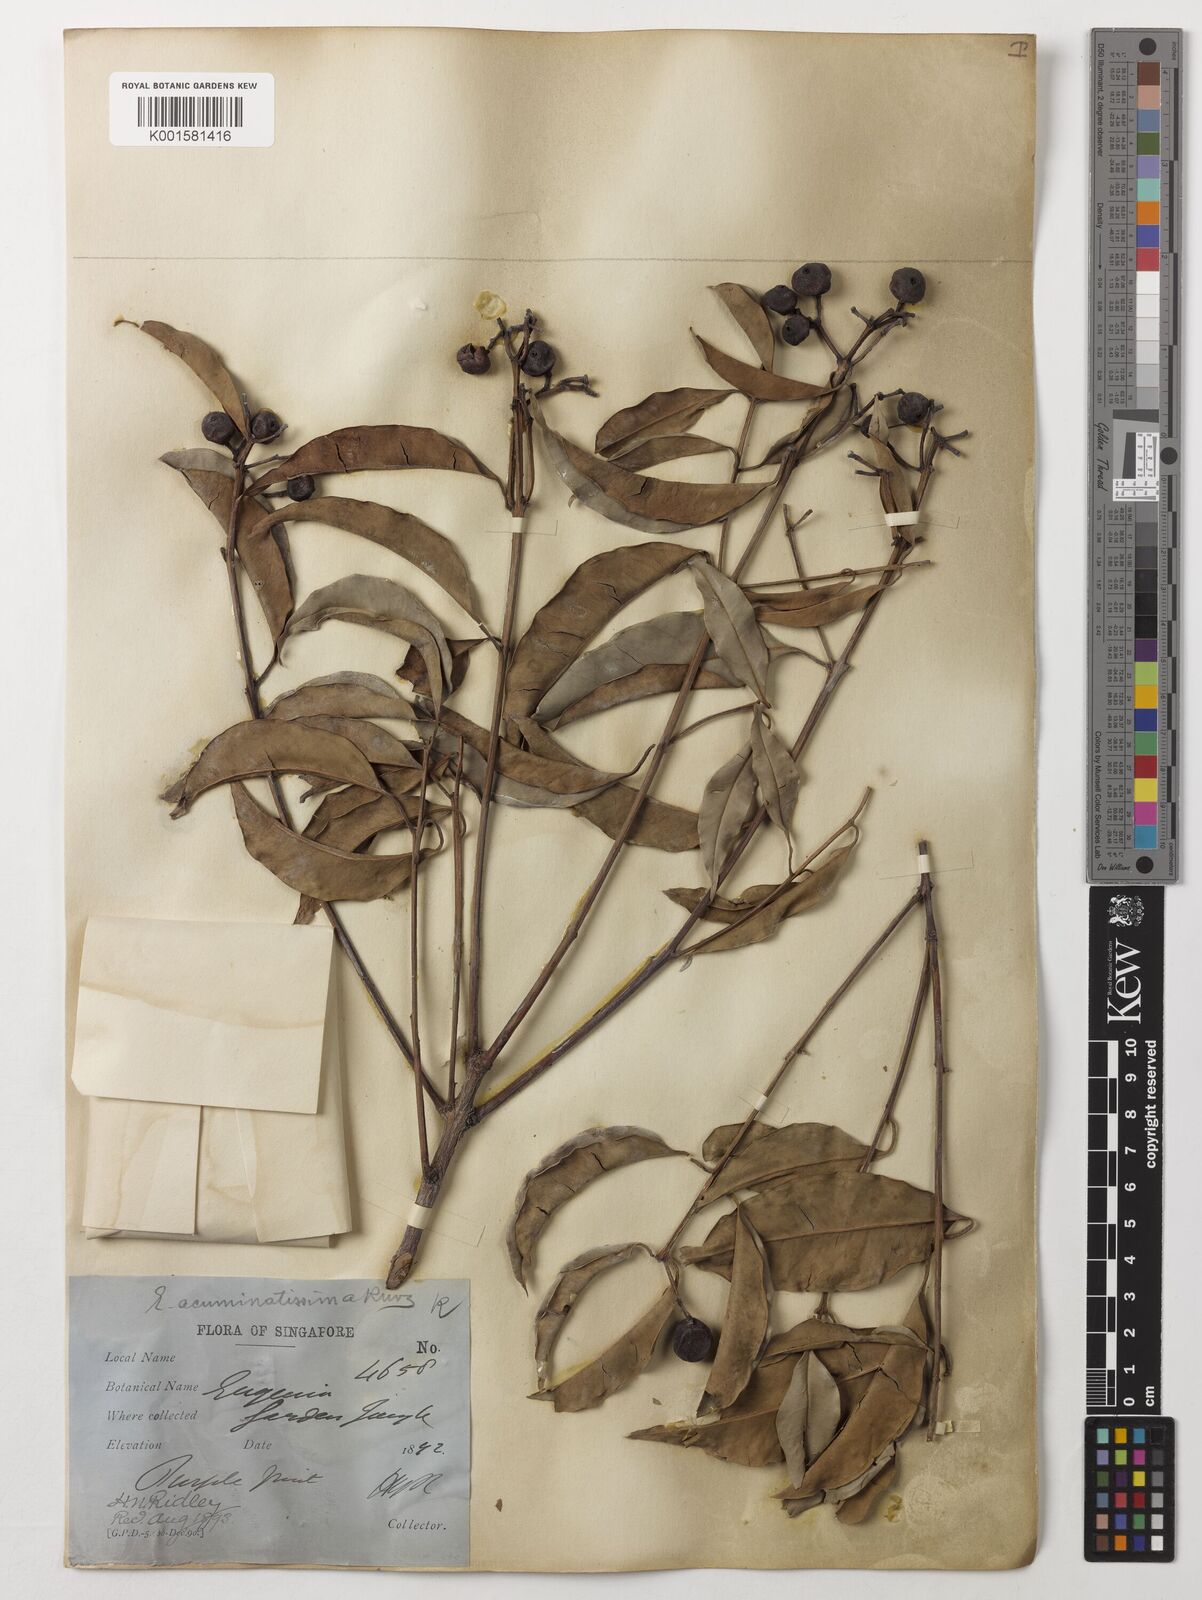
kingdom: Plantae
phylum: Tracheophyta
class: Magnoliopsida
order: Myrtales
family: Myrtaceae
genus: Eugenia
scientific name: Eugenia biflora
